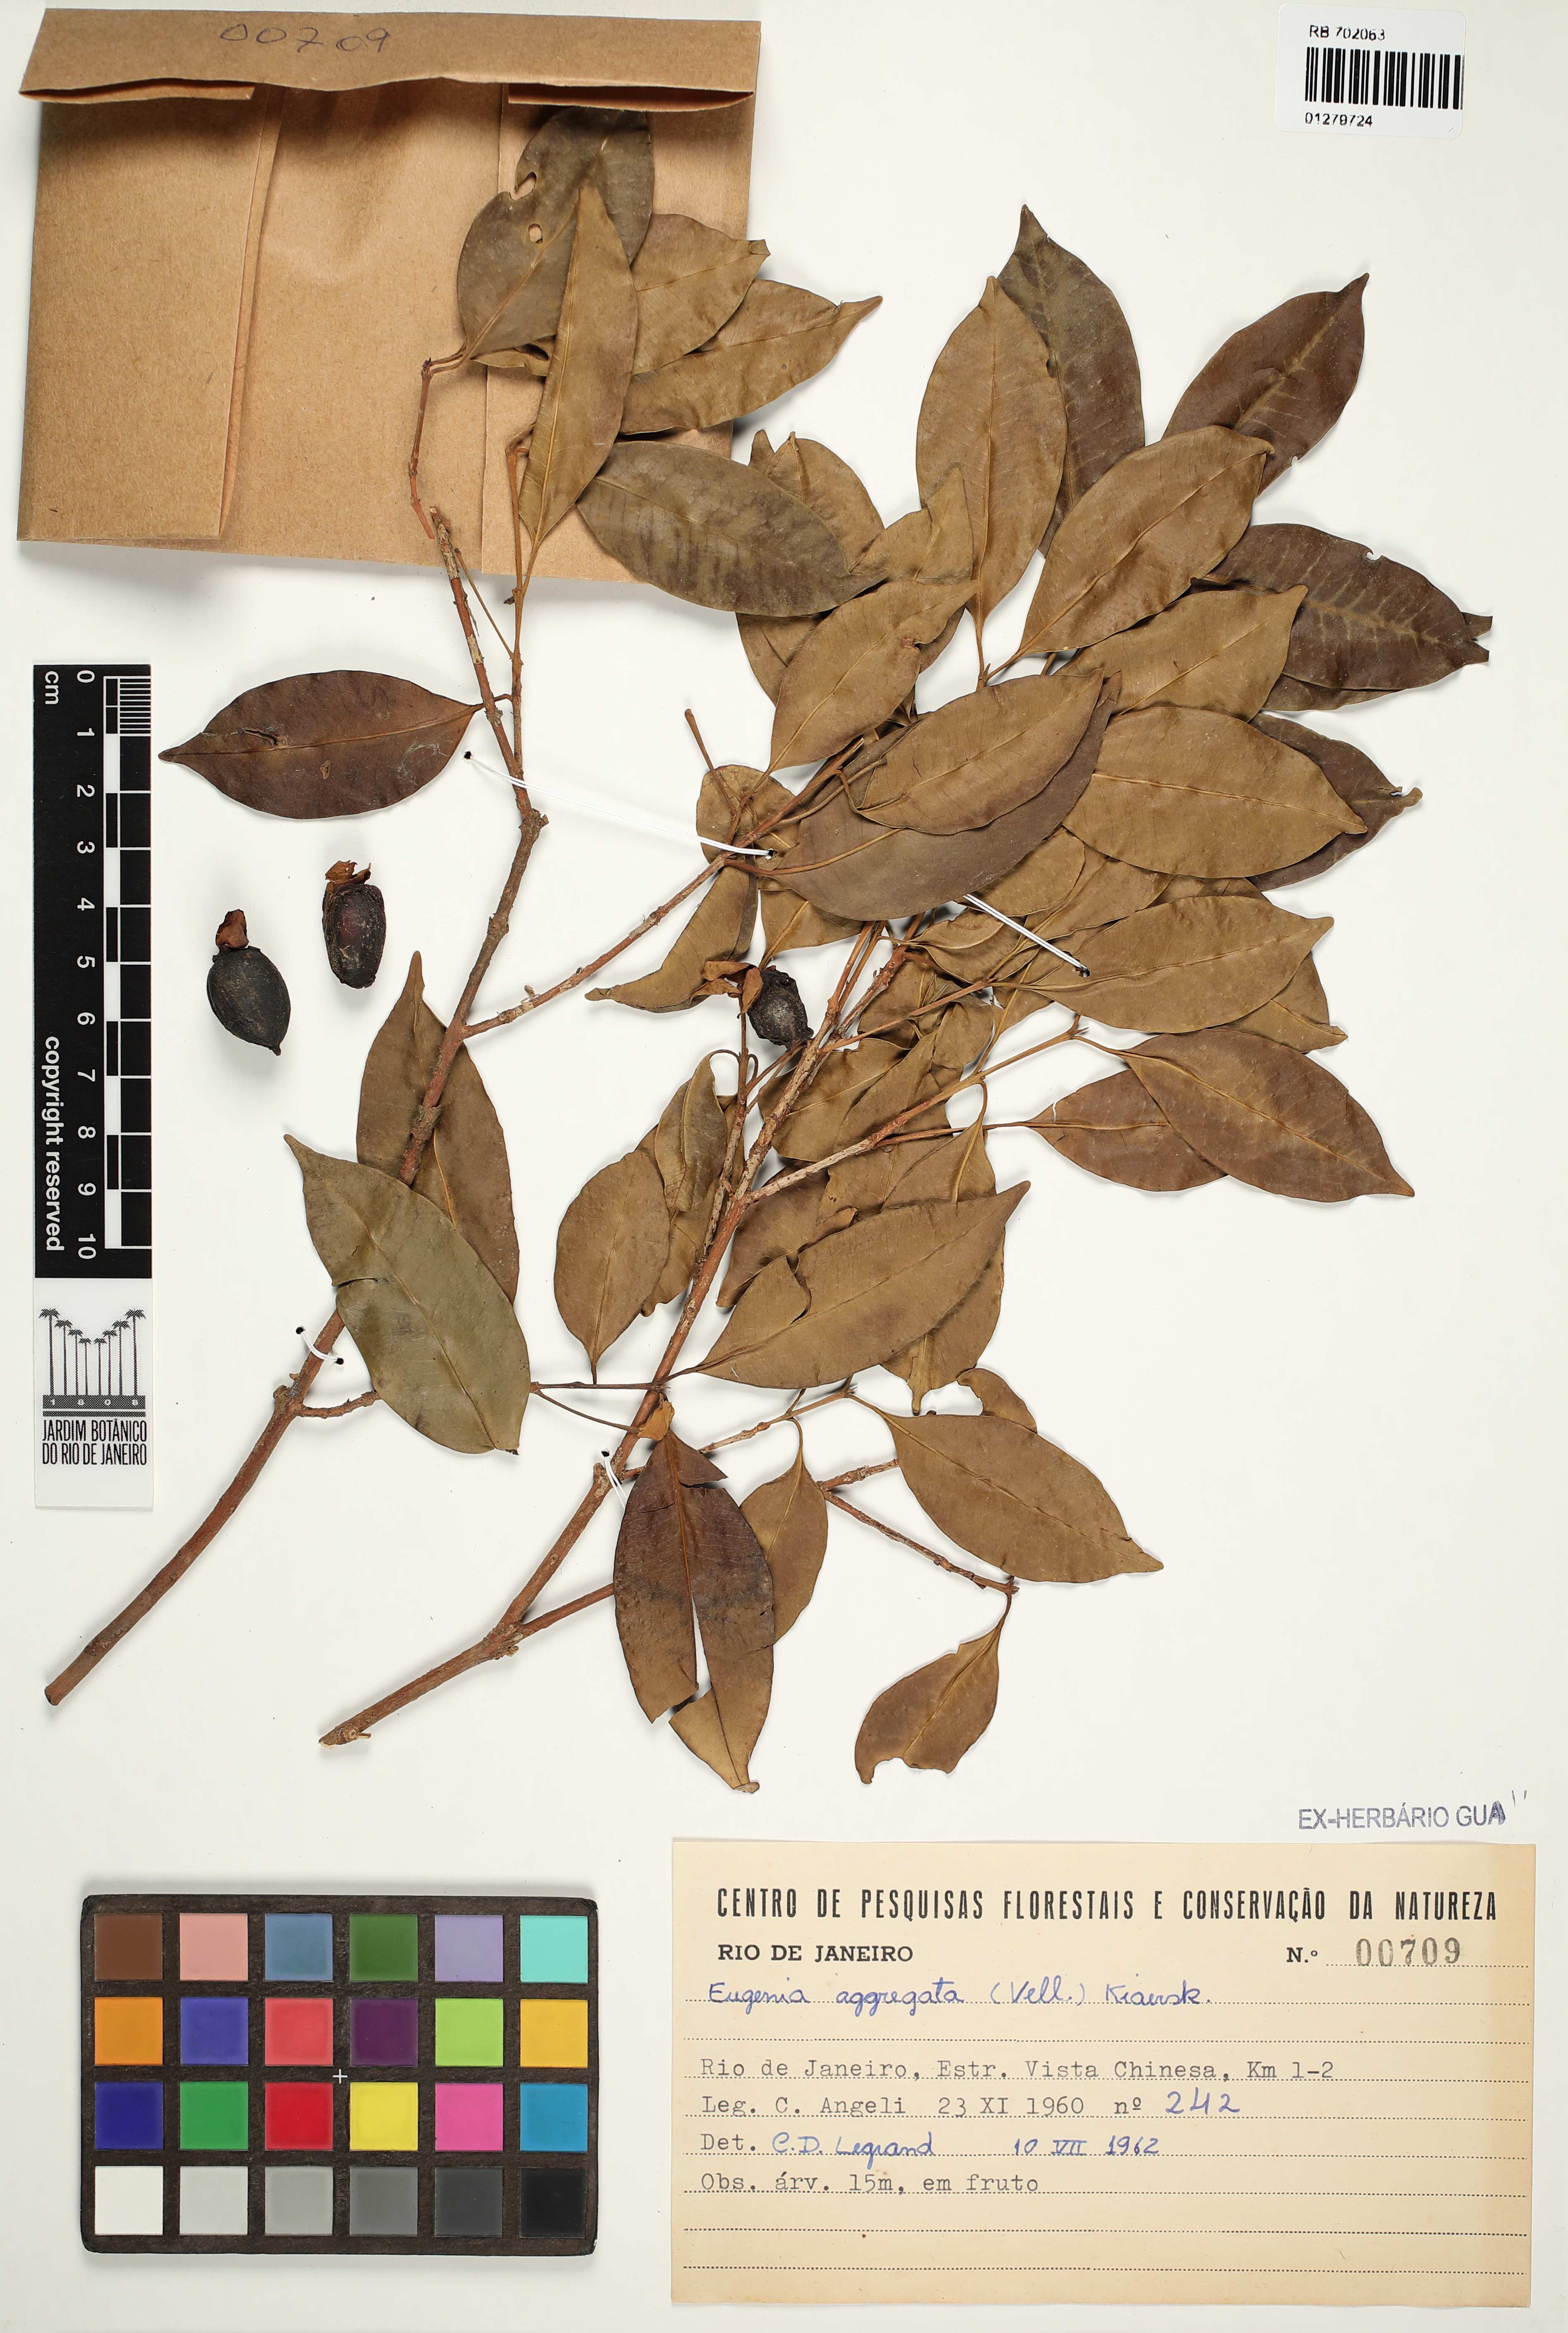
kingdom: Plantae
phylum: Tracheophyta
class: Magnoliopsida
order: Myrtales
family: Myrtaceae
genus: Eugenia
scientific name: Eugenia cerasiflora
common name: Cherry-of-the-rio-grande
